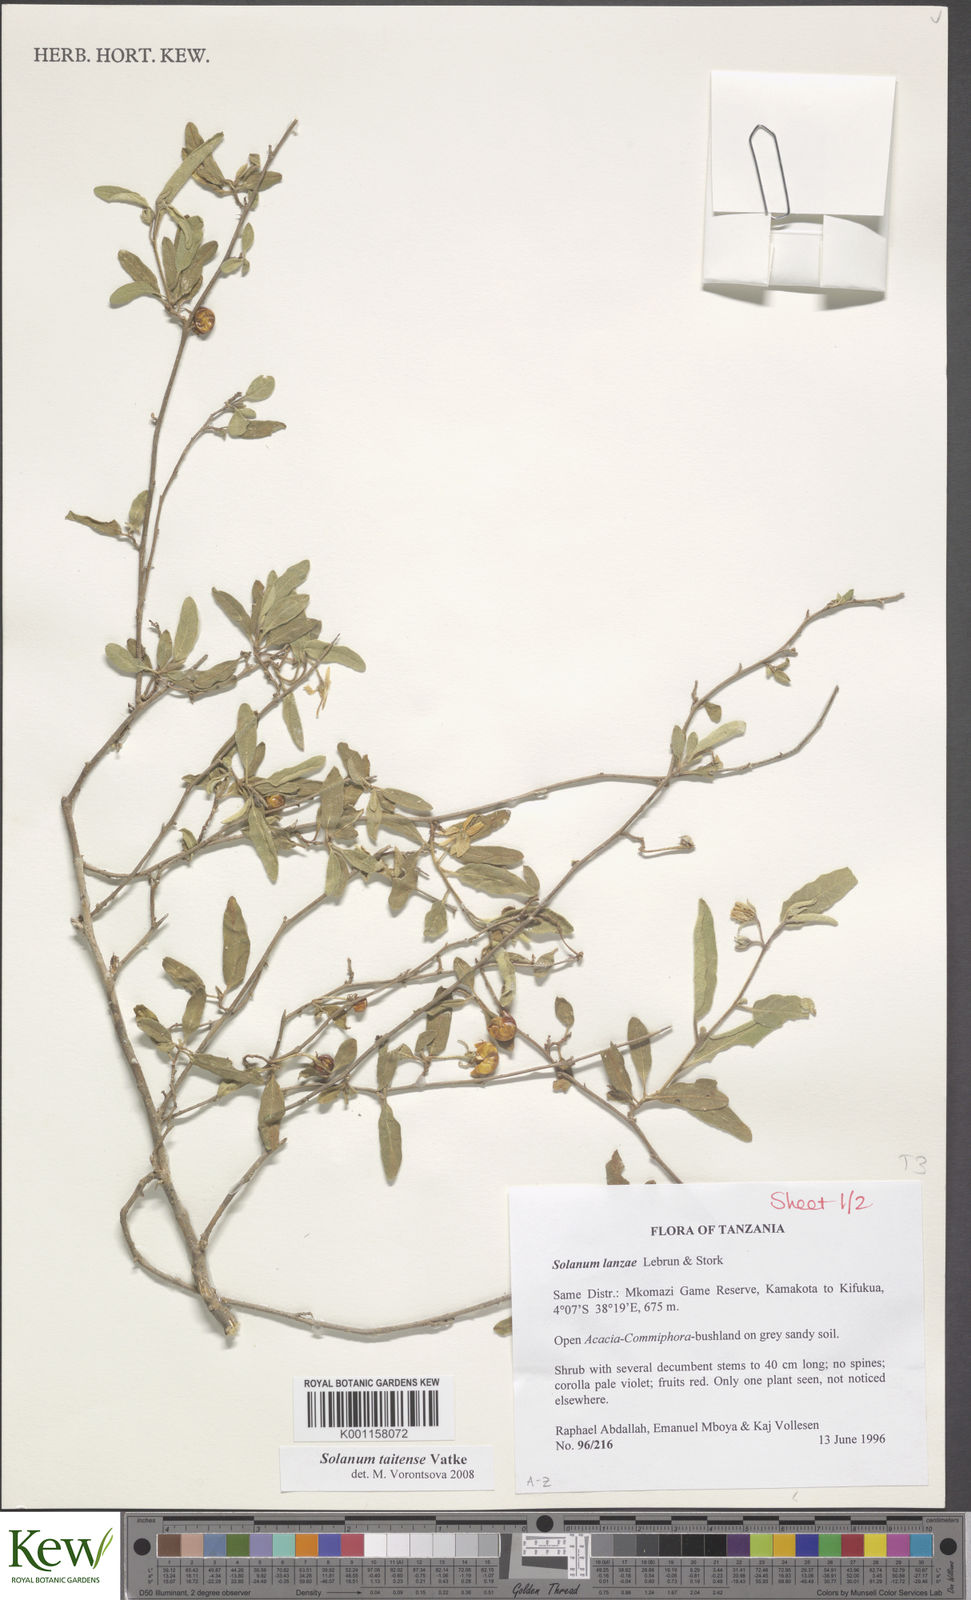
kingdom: Plantae
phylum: Tracheophyta
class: Magnoliopsida
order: Solanales
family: Solanaceae
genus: Solanum
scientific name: Solanum taitense
